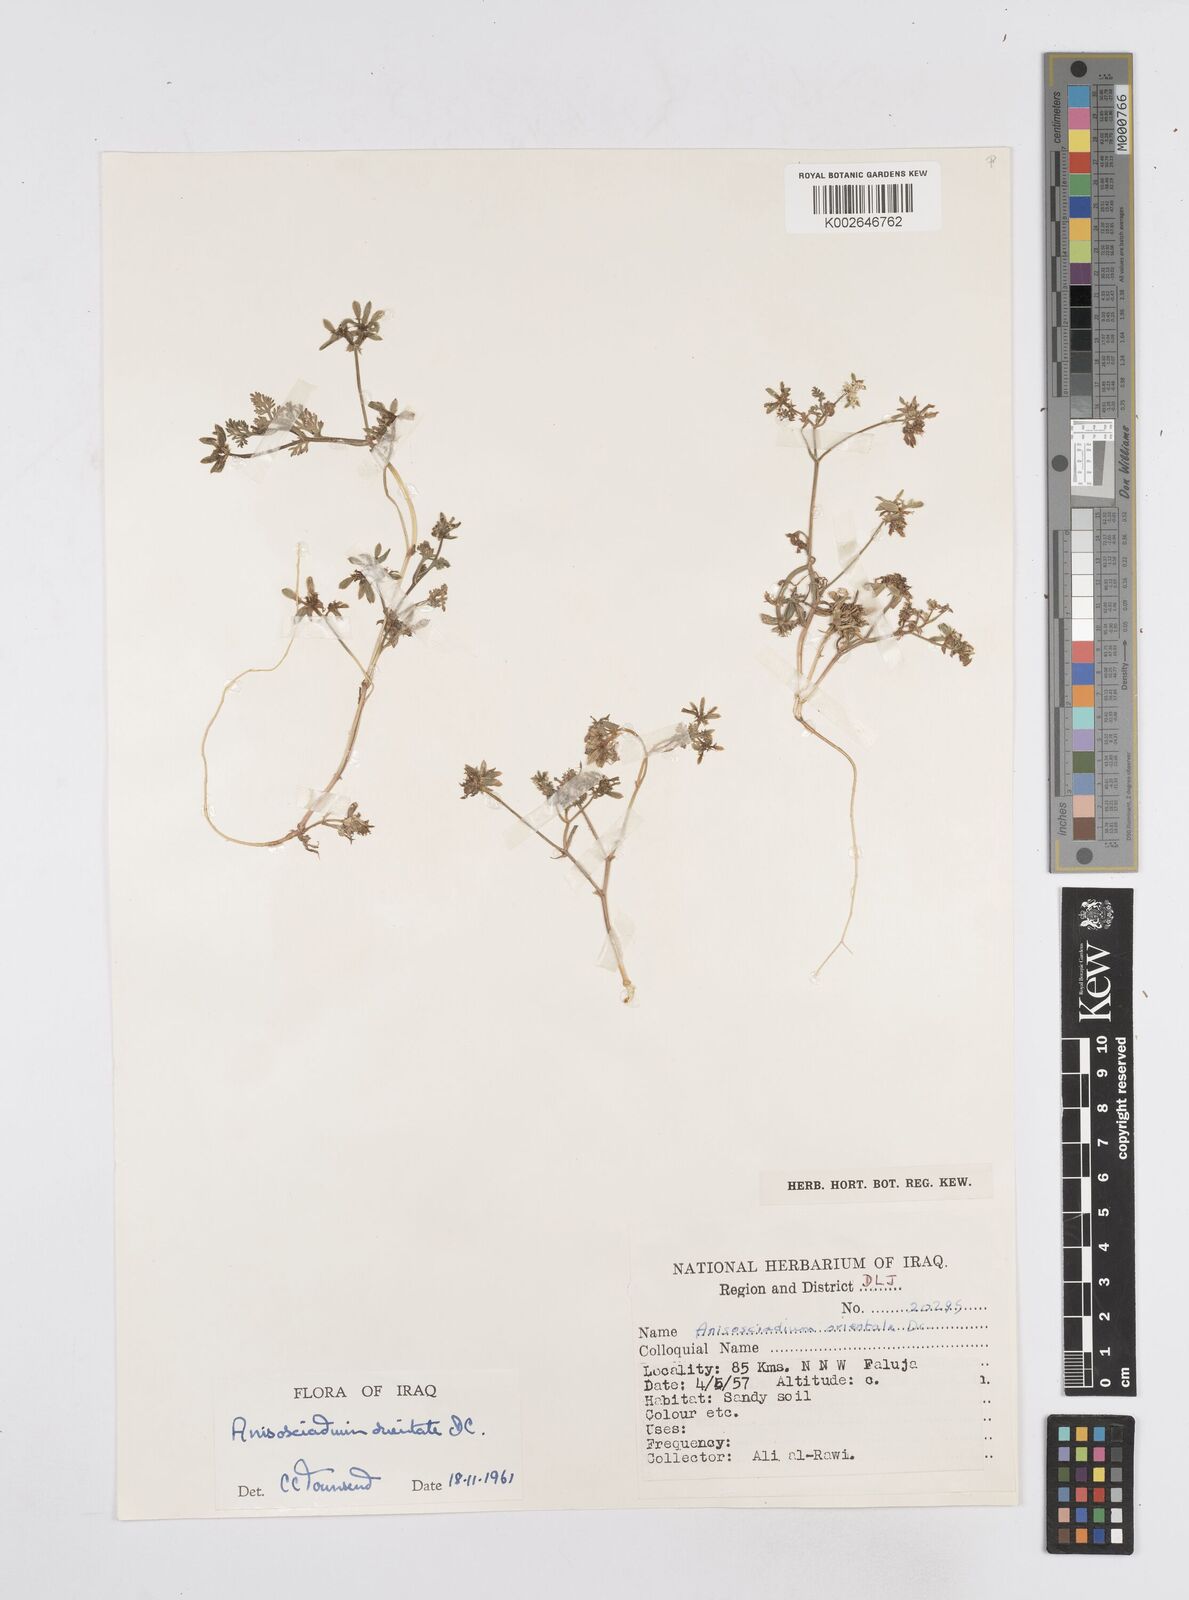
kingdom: Plantae
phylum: Tracheophyta
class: Magnoliopsida
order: Apiales
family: Apiaceae
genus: Anisosciadium
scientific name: Anisosciadium orientale
